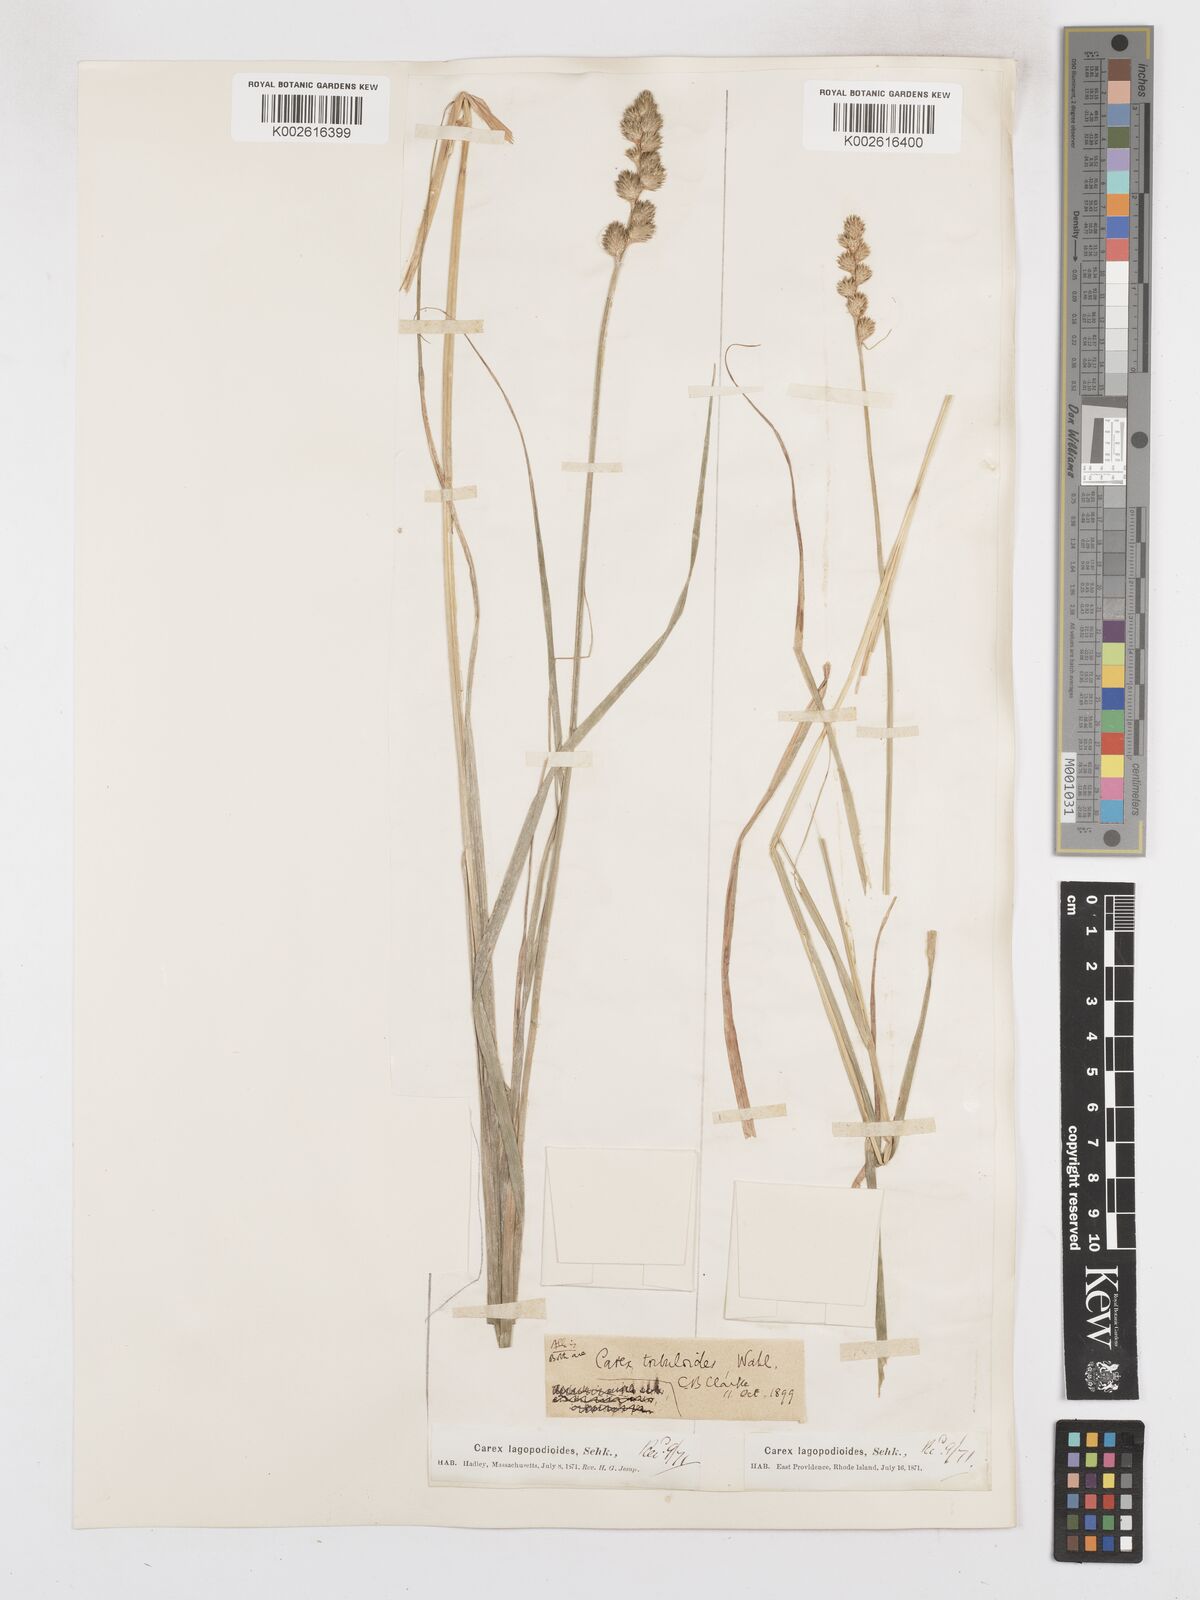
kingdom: Plantae
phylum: Tracheophyta
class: Liliopsida
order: Poales
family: Cyperaceae
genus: Carex
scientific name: Carex tribuloides
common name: Blunt broom sedge
